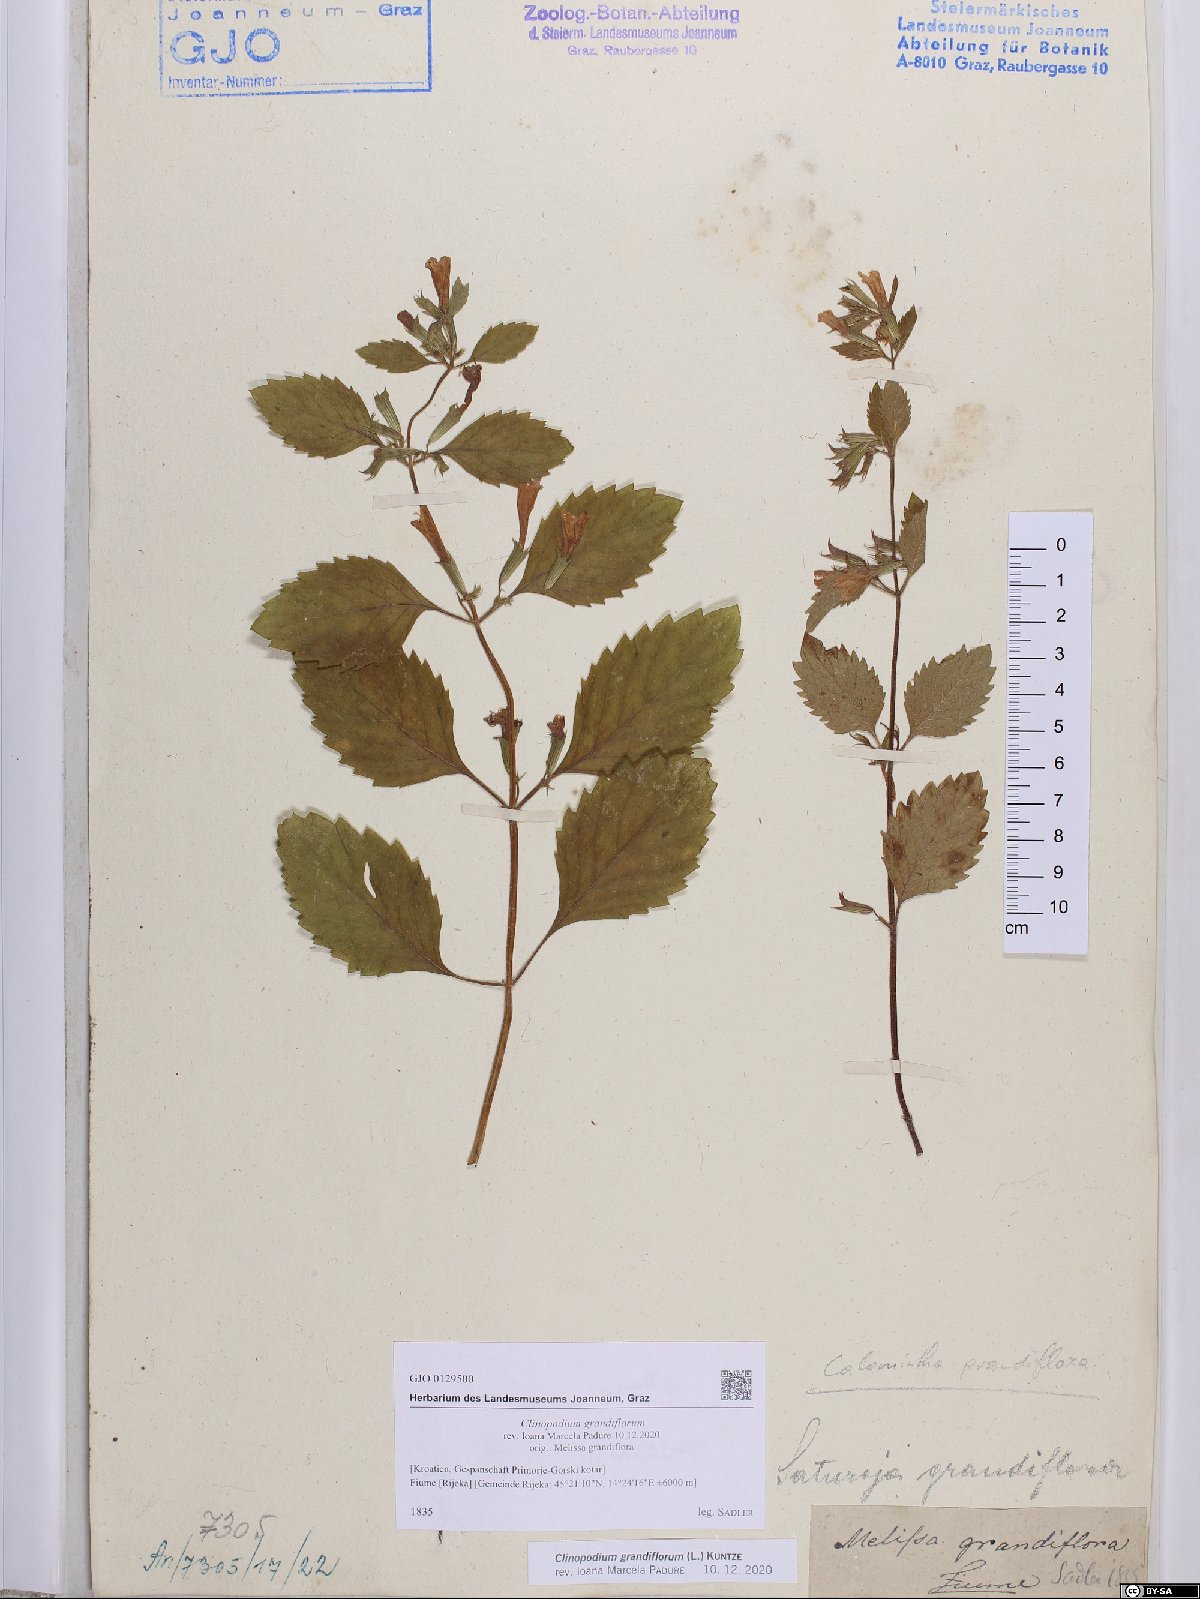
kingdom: Plantae
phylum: Tracheophyta
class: Magnoliopsida
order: Lamiales
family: Lamiaceae
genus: Clinopodium
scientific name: Clinopodium grandiflorum
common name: Greater calamint
